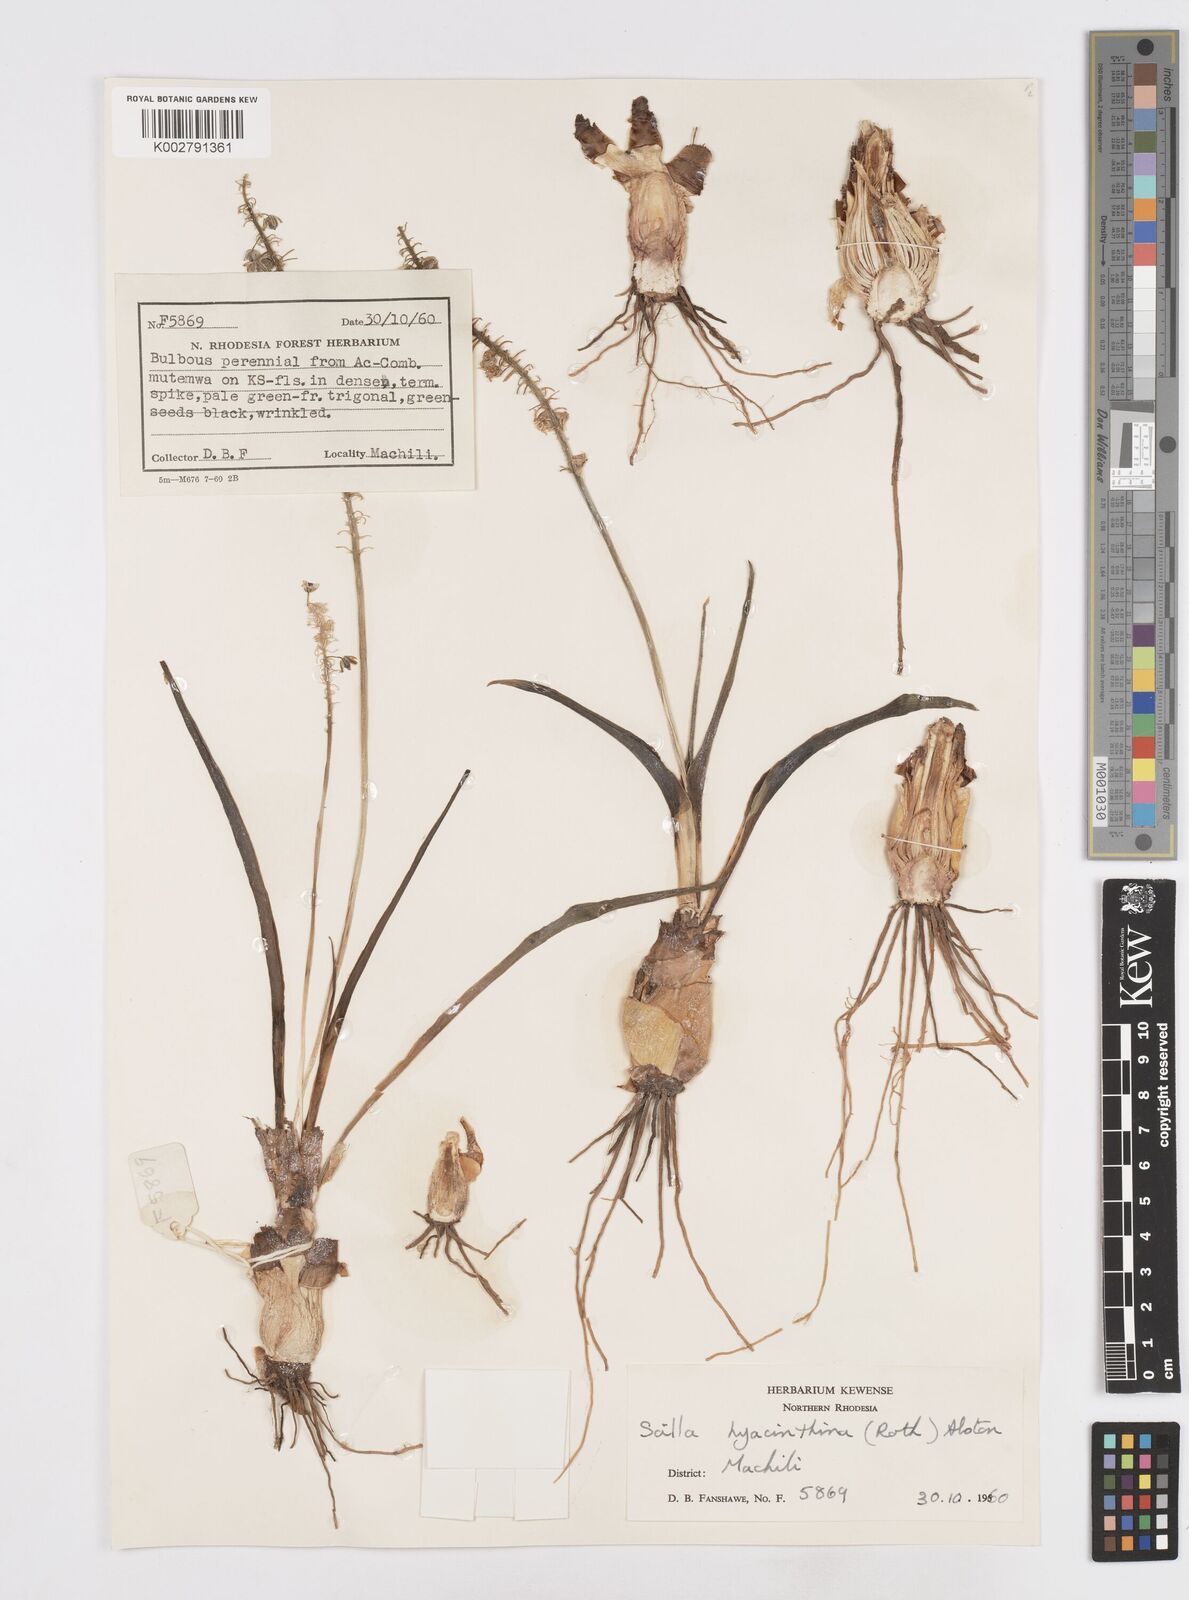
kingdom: Plantae
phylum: Tracheophyta
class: Liliopsida
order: Asparagales
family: Asparagaceae
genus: Ledebouria
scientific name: Ledebouria revoluta
